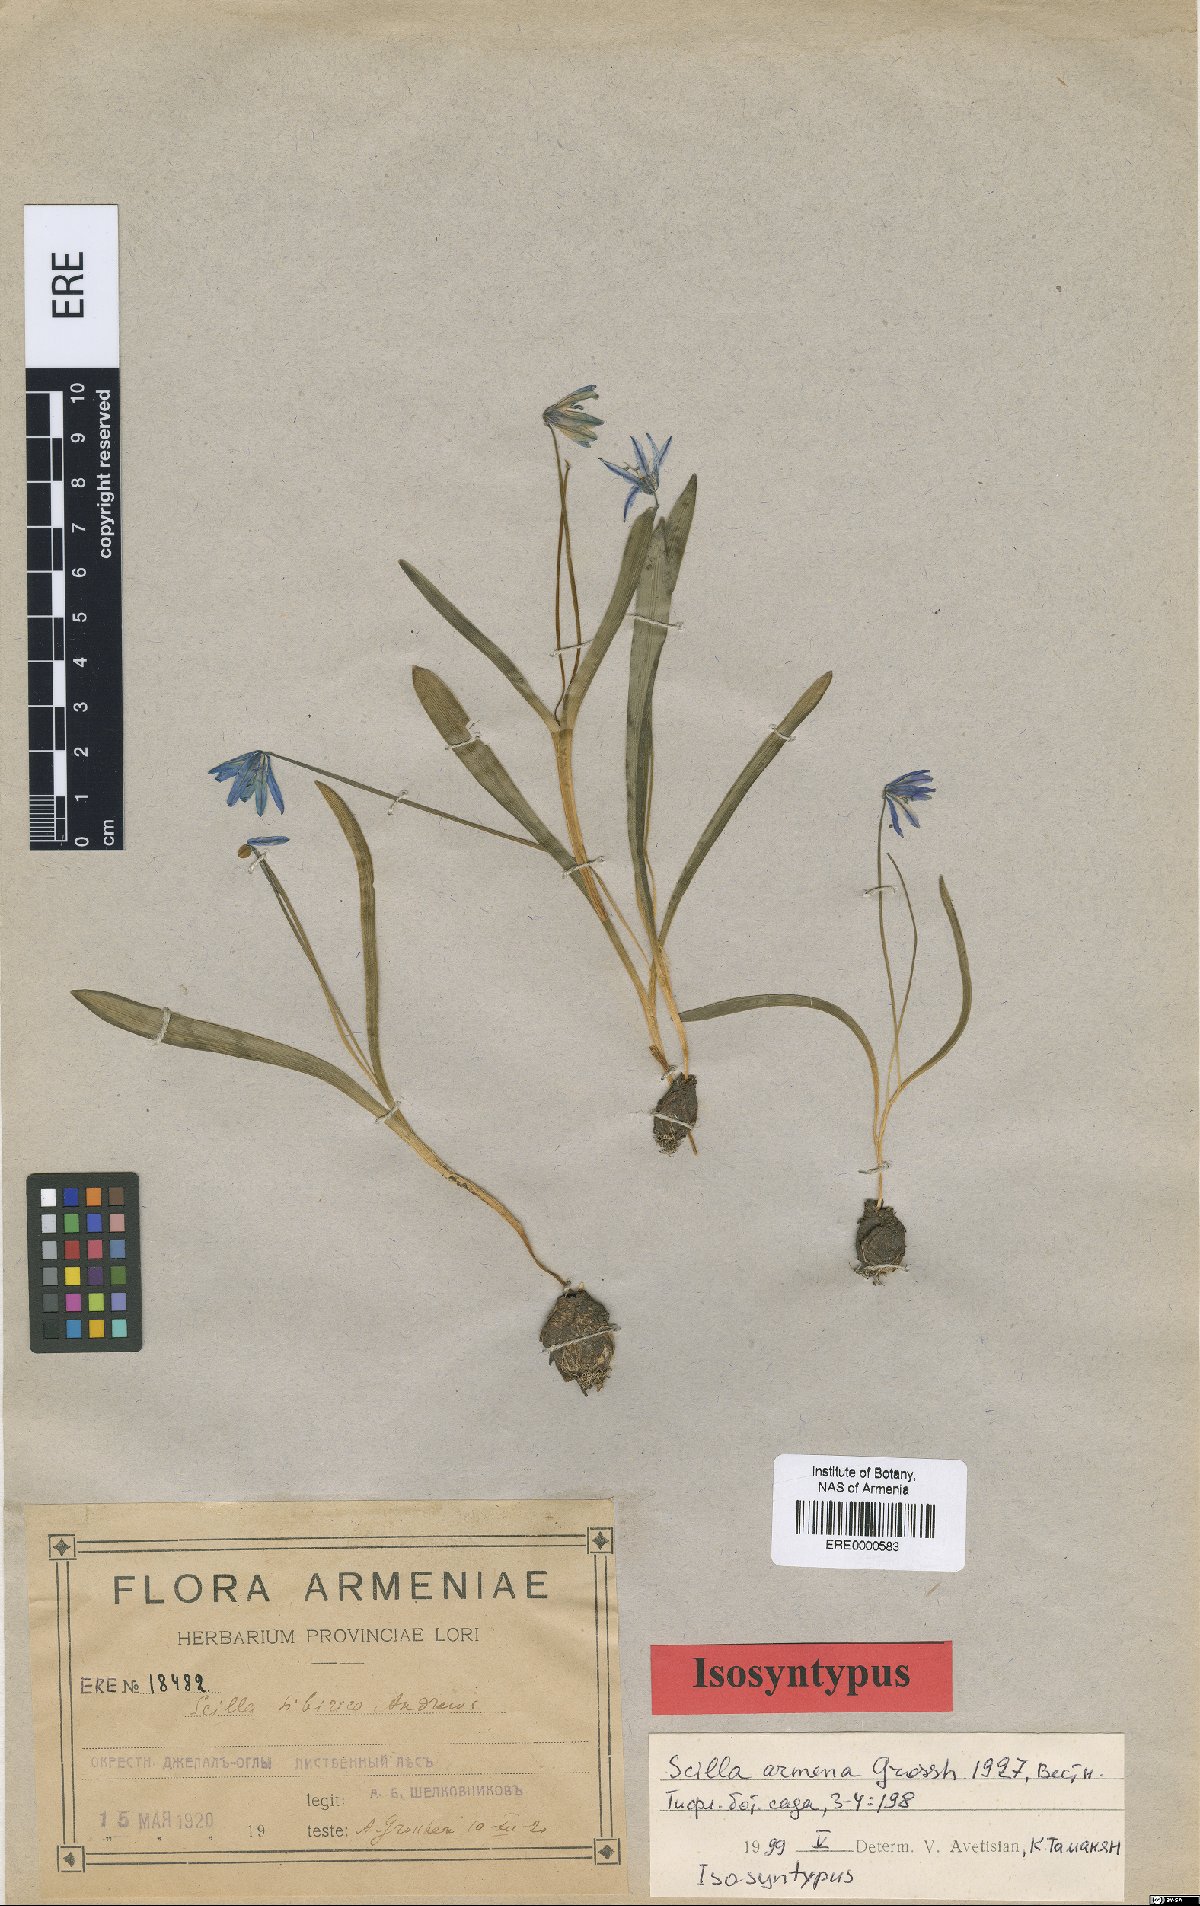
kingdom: Plantae
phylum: Tracheophyta
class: Liliopsida
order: Asparagales
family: Asparagaceae
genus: Scilla
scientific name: Scilla siberica
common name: Siberian squill
